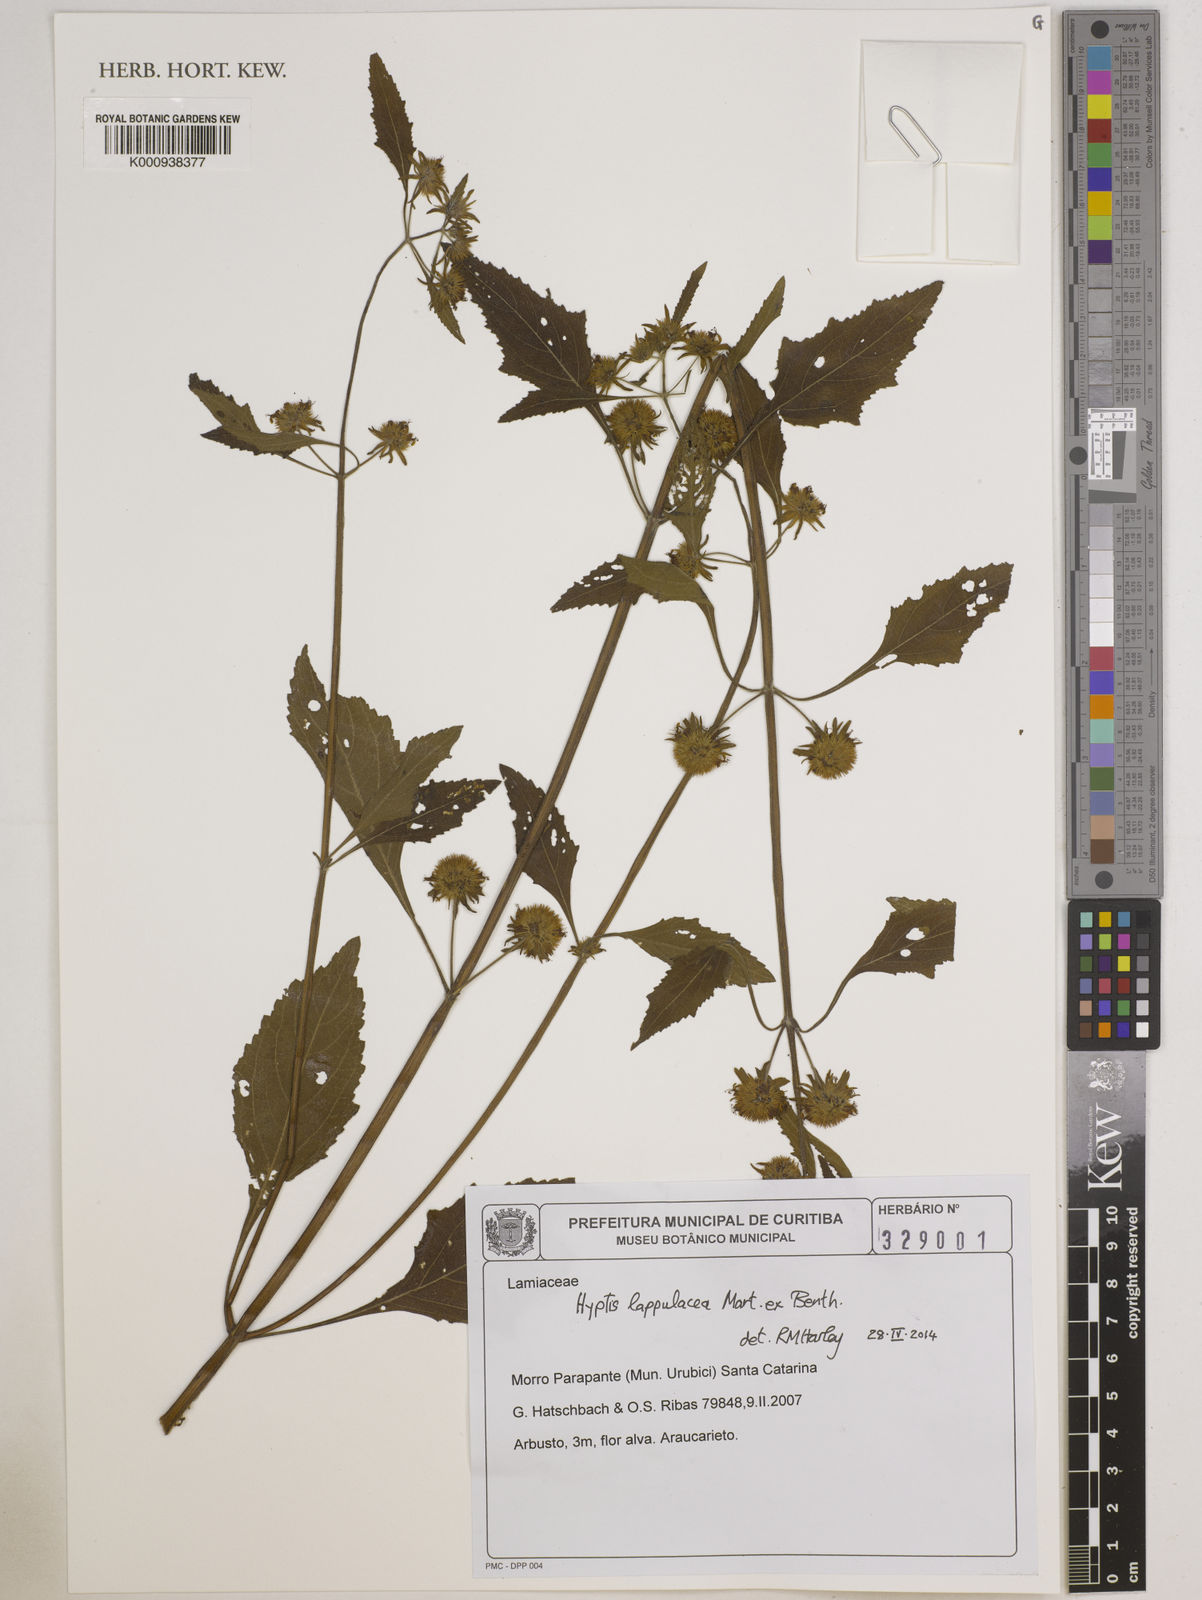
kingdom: Plantae
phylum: Tracheophyta
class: Magnoliopsida
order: Lamiales
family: Lamiaceae
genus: Hyptis
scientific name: Hyptis lappulacea
